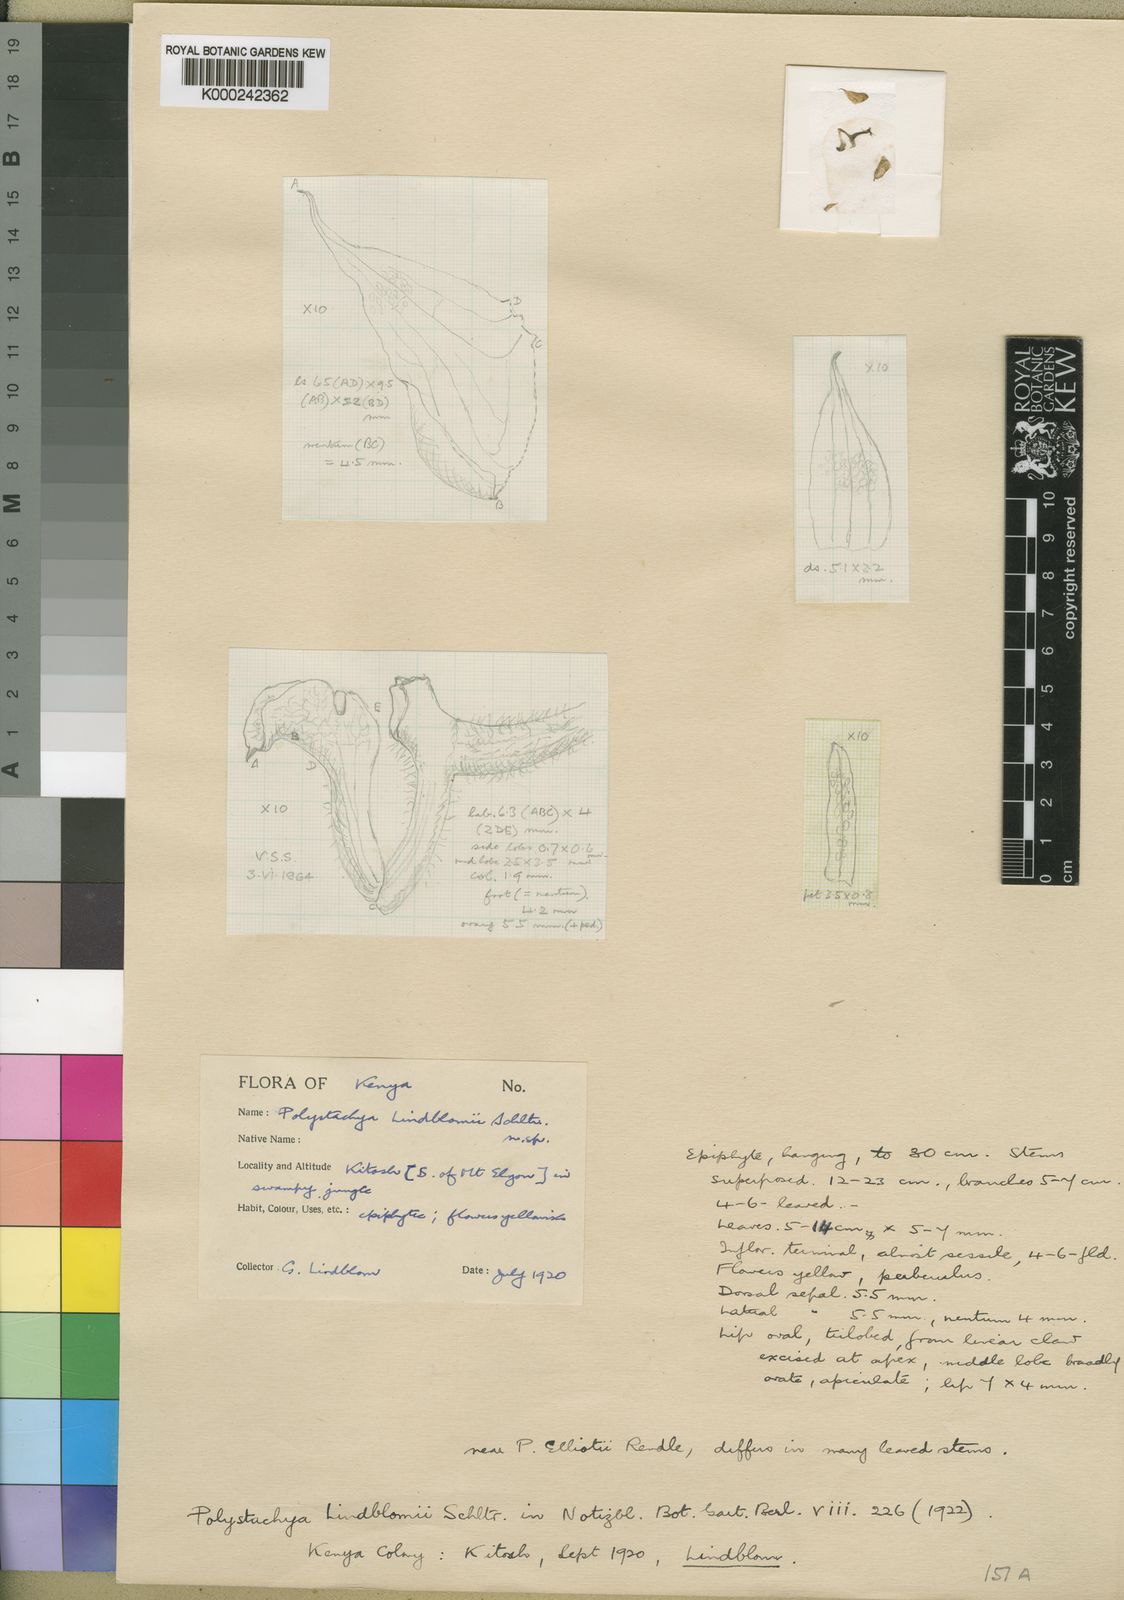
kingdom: Plantae
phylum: Tracheophyta
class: Liliopsida
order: Asparagales
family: Orchidaceae
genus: Polystachya
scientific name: Polystachya lindblomii
